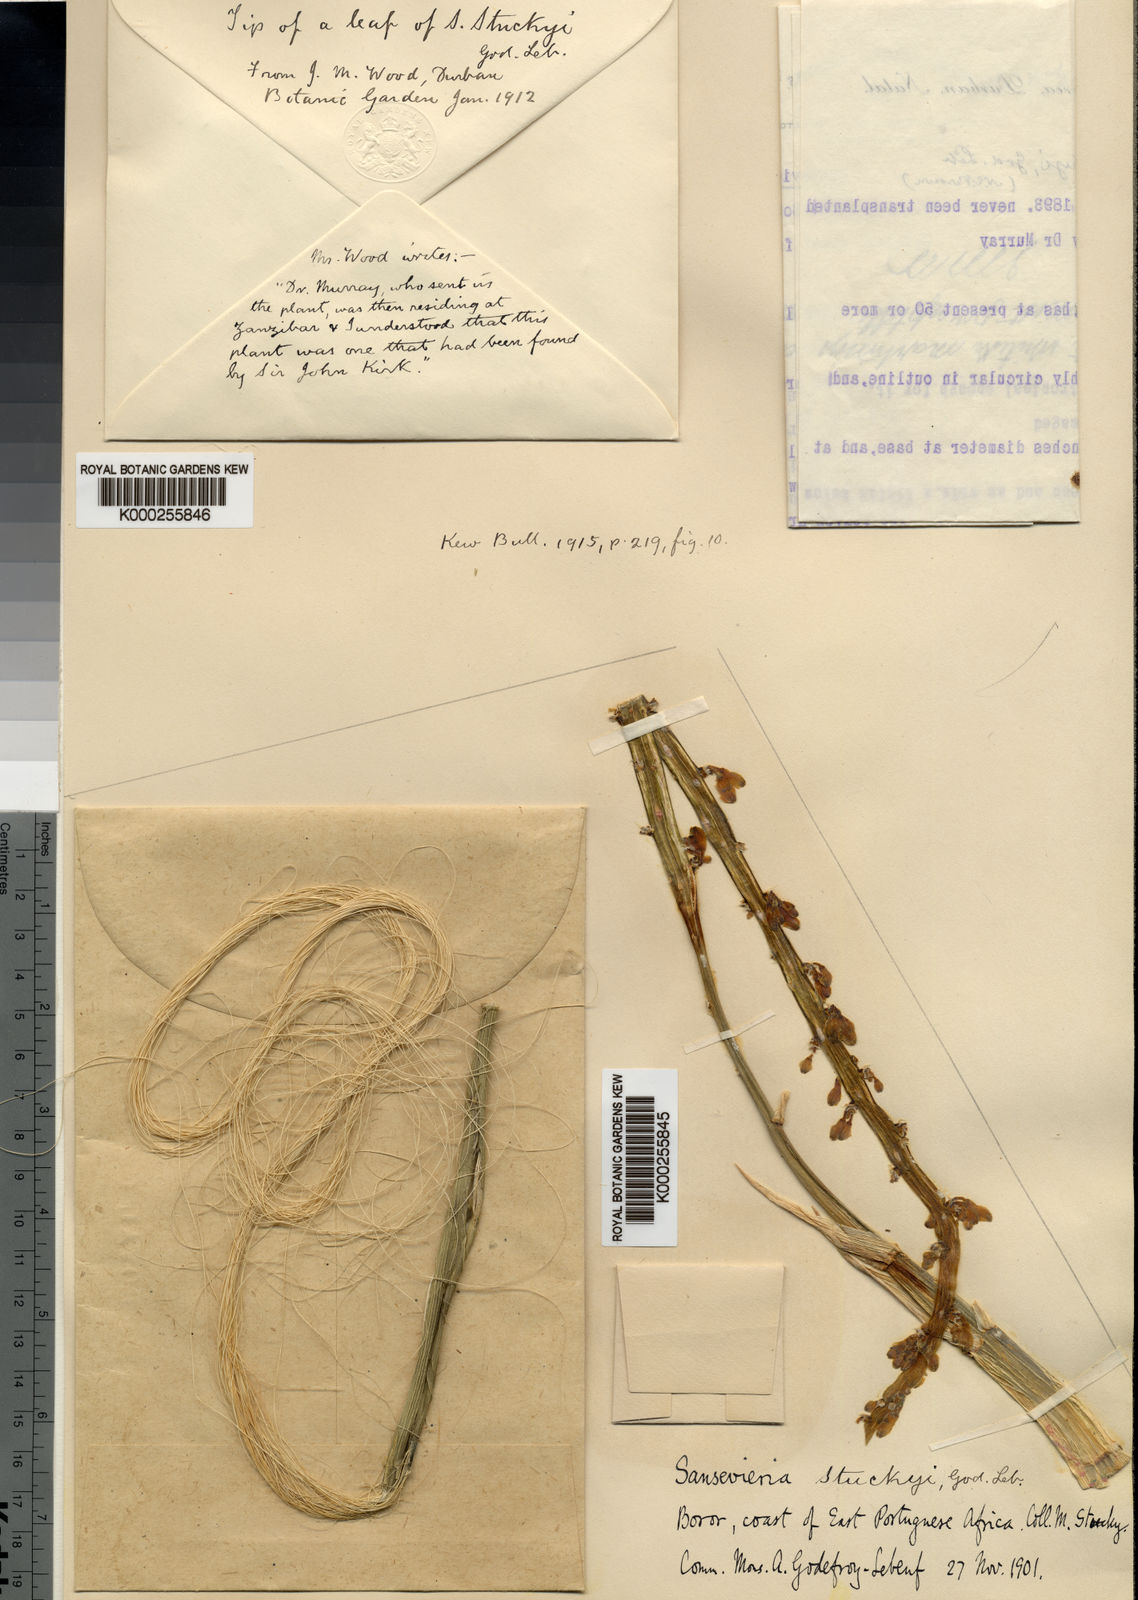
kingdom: Plantae
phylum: Tracheophyta
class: Liliopsida
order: Asparagales
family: Asparagaceae
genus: Dracaena
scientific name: Dracaena stuckyi
